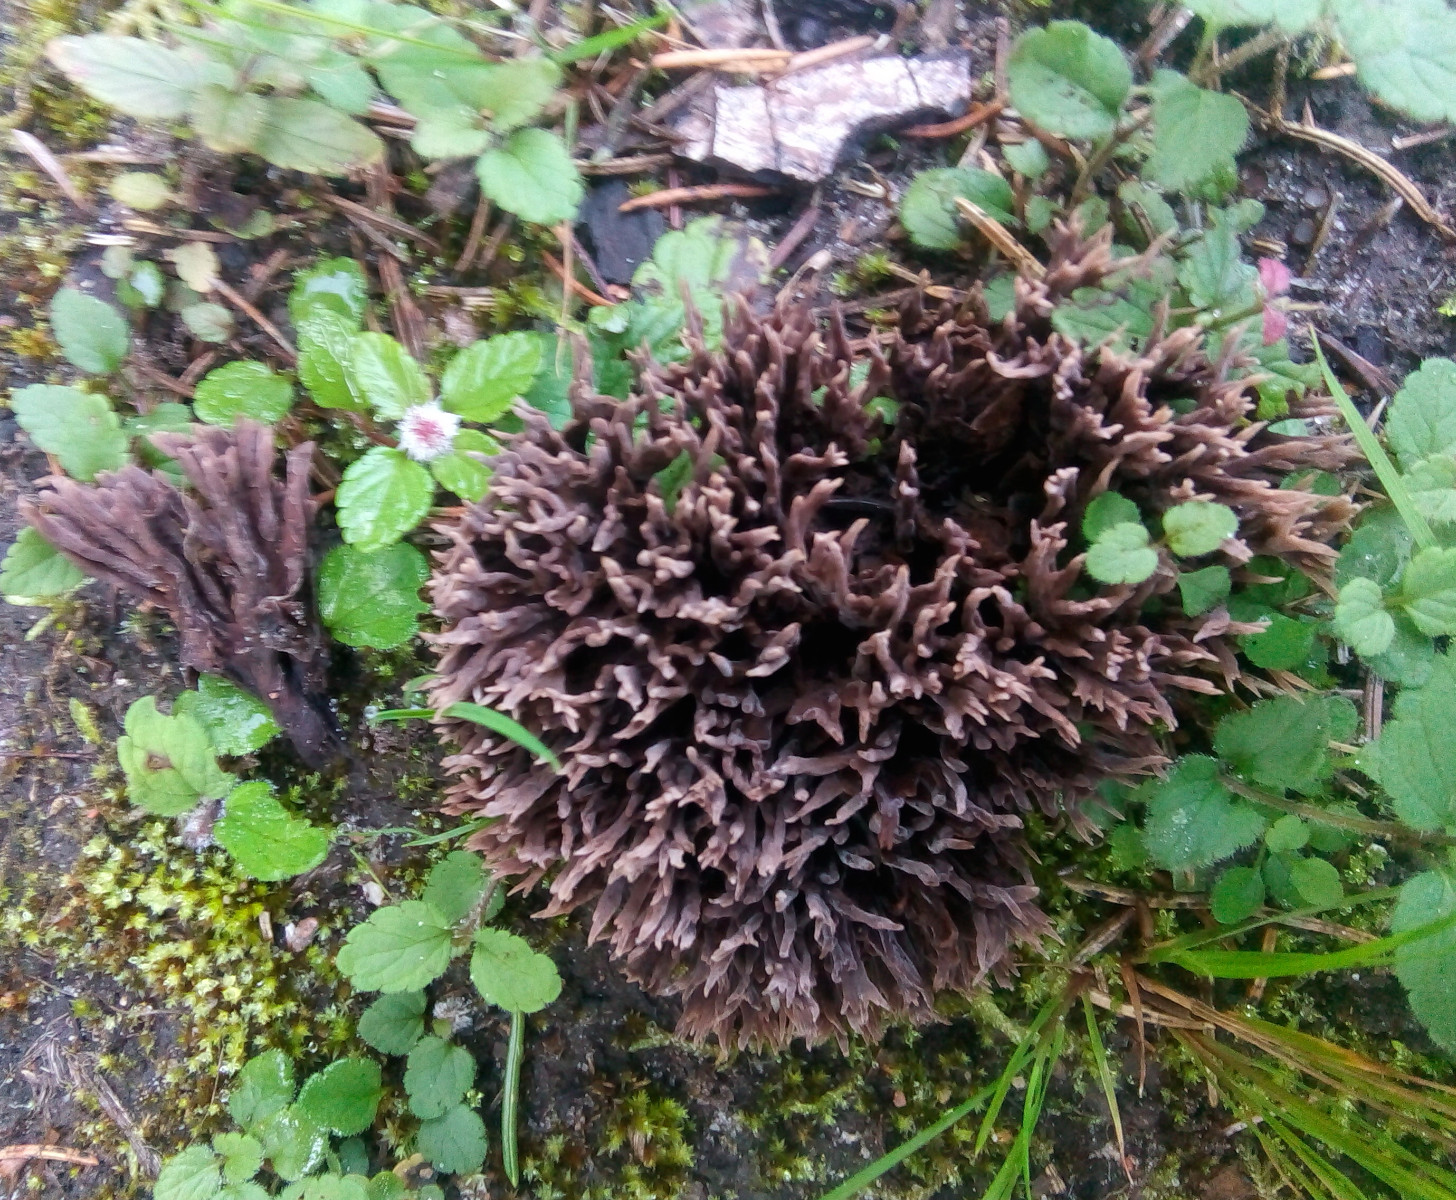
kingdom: Fungi
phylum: Basidiomycota
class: Agaricomycetes
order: Thelephorales
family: Thelephoraceae
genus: Thelephora
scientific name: Thelephora palmata
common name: grenet frynsesvamp
